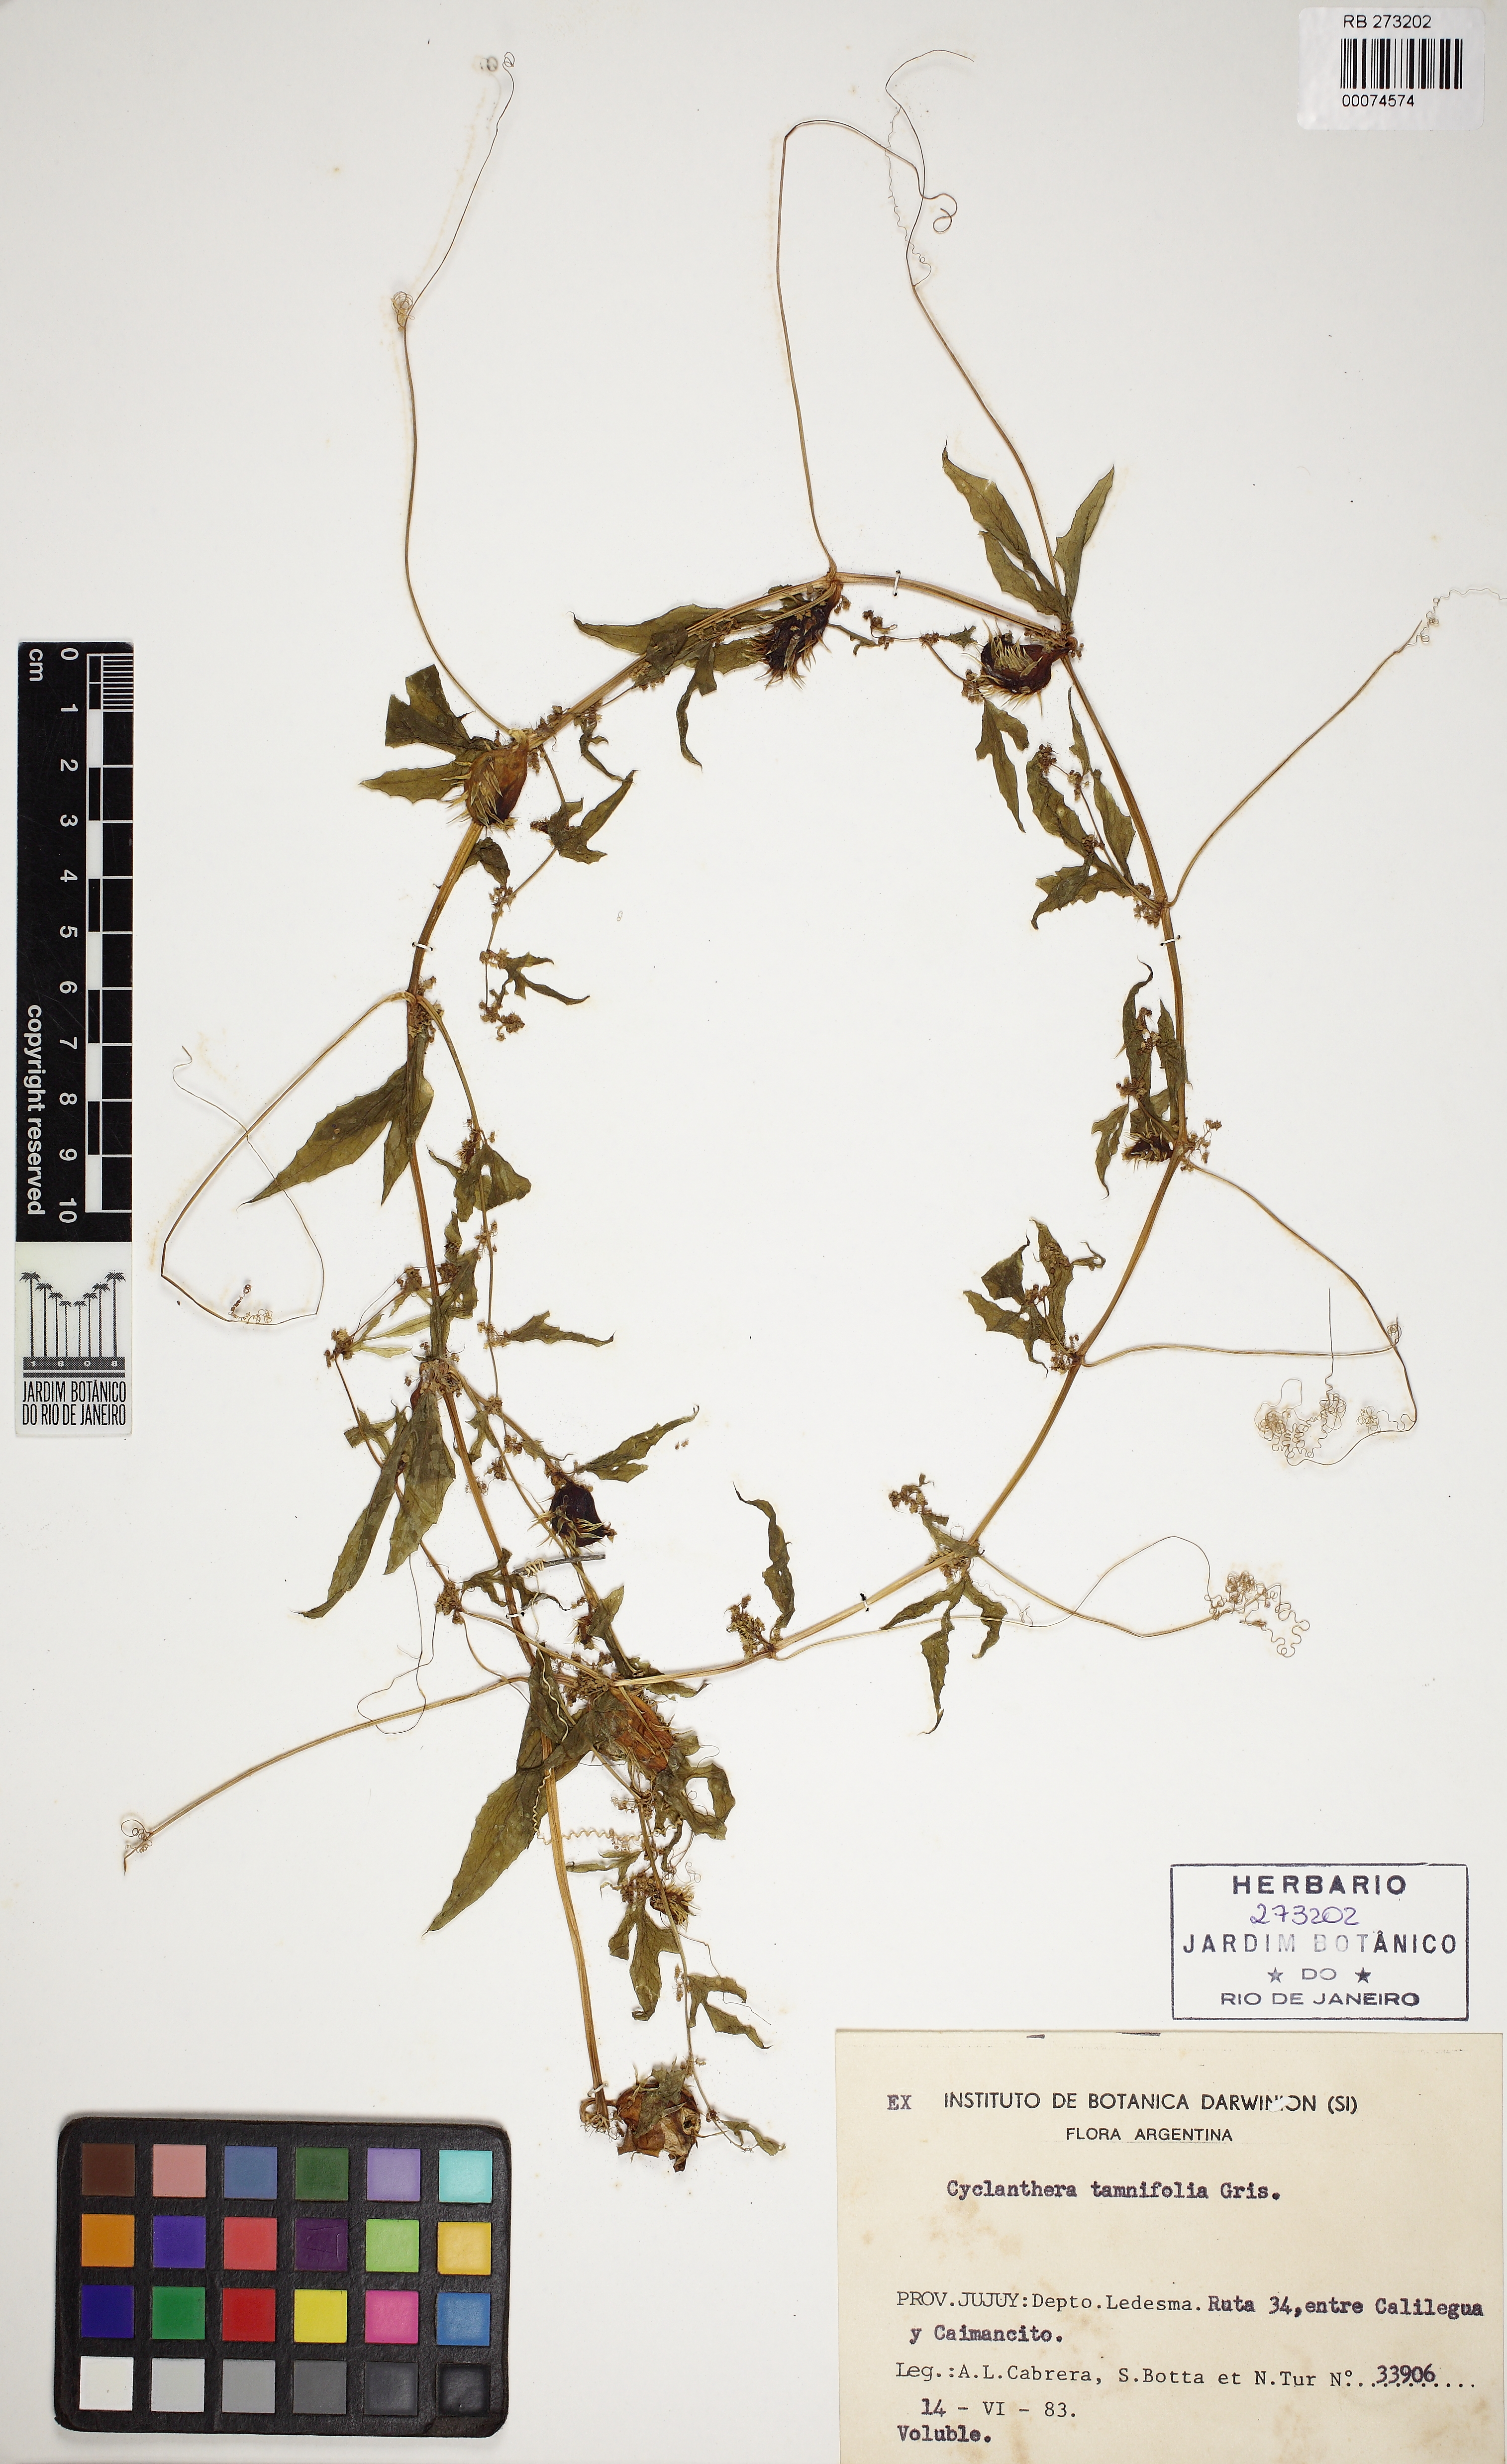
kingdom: Plantae
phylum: Tracheophyta
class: Magnoliopsida
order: Cucurbitales
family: Cucurbitaceae
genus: Cyclanthera
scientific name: Cyclanthera tamnifolia
